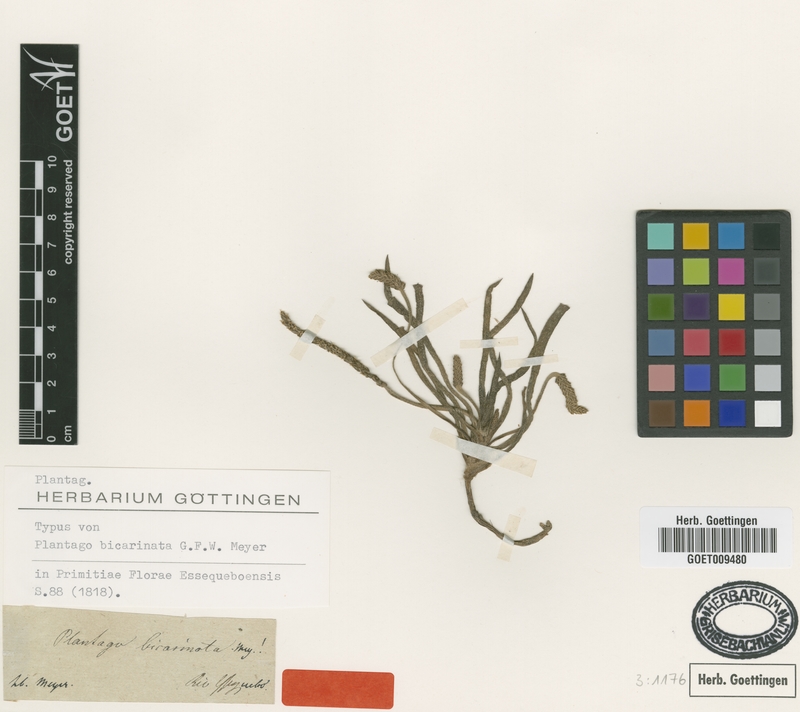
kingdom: Plantae
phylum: Tracheophyta
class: Magnoliopsida
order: Lamiales
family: Plantaginaceae
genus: Plantago
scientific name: Plantago maritima
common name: Sea plantain
